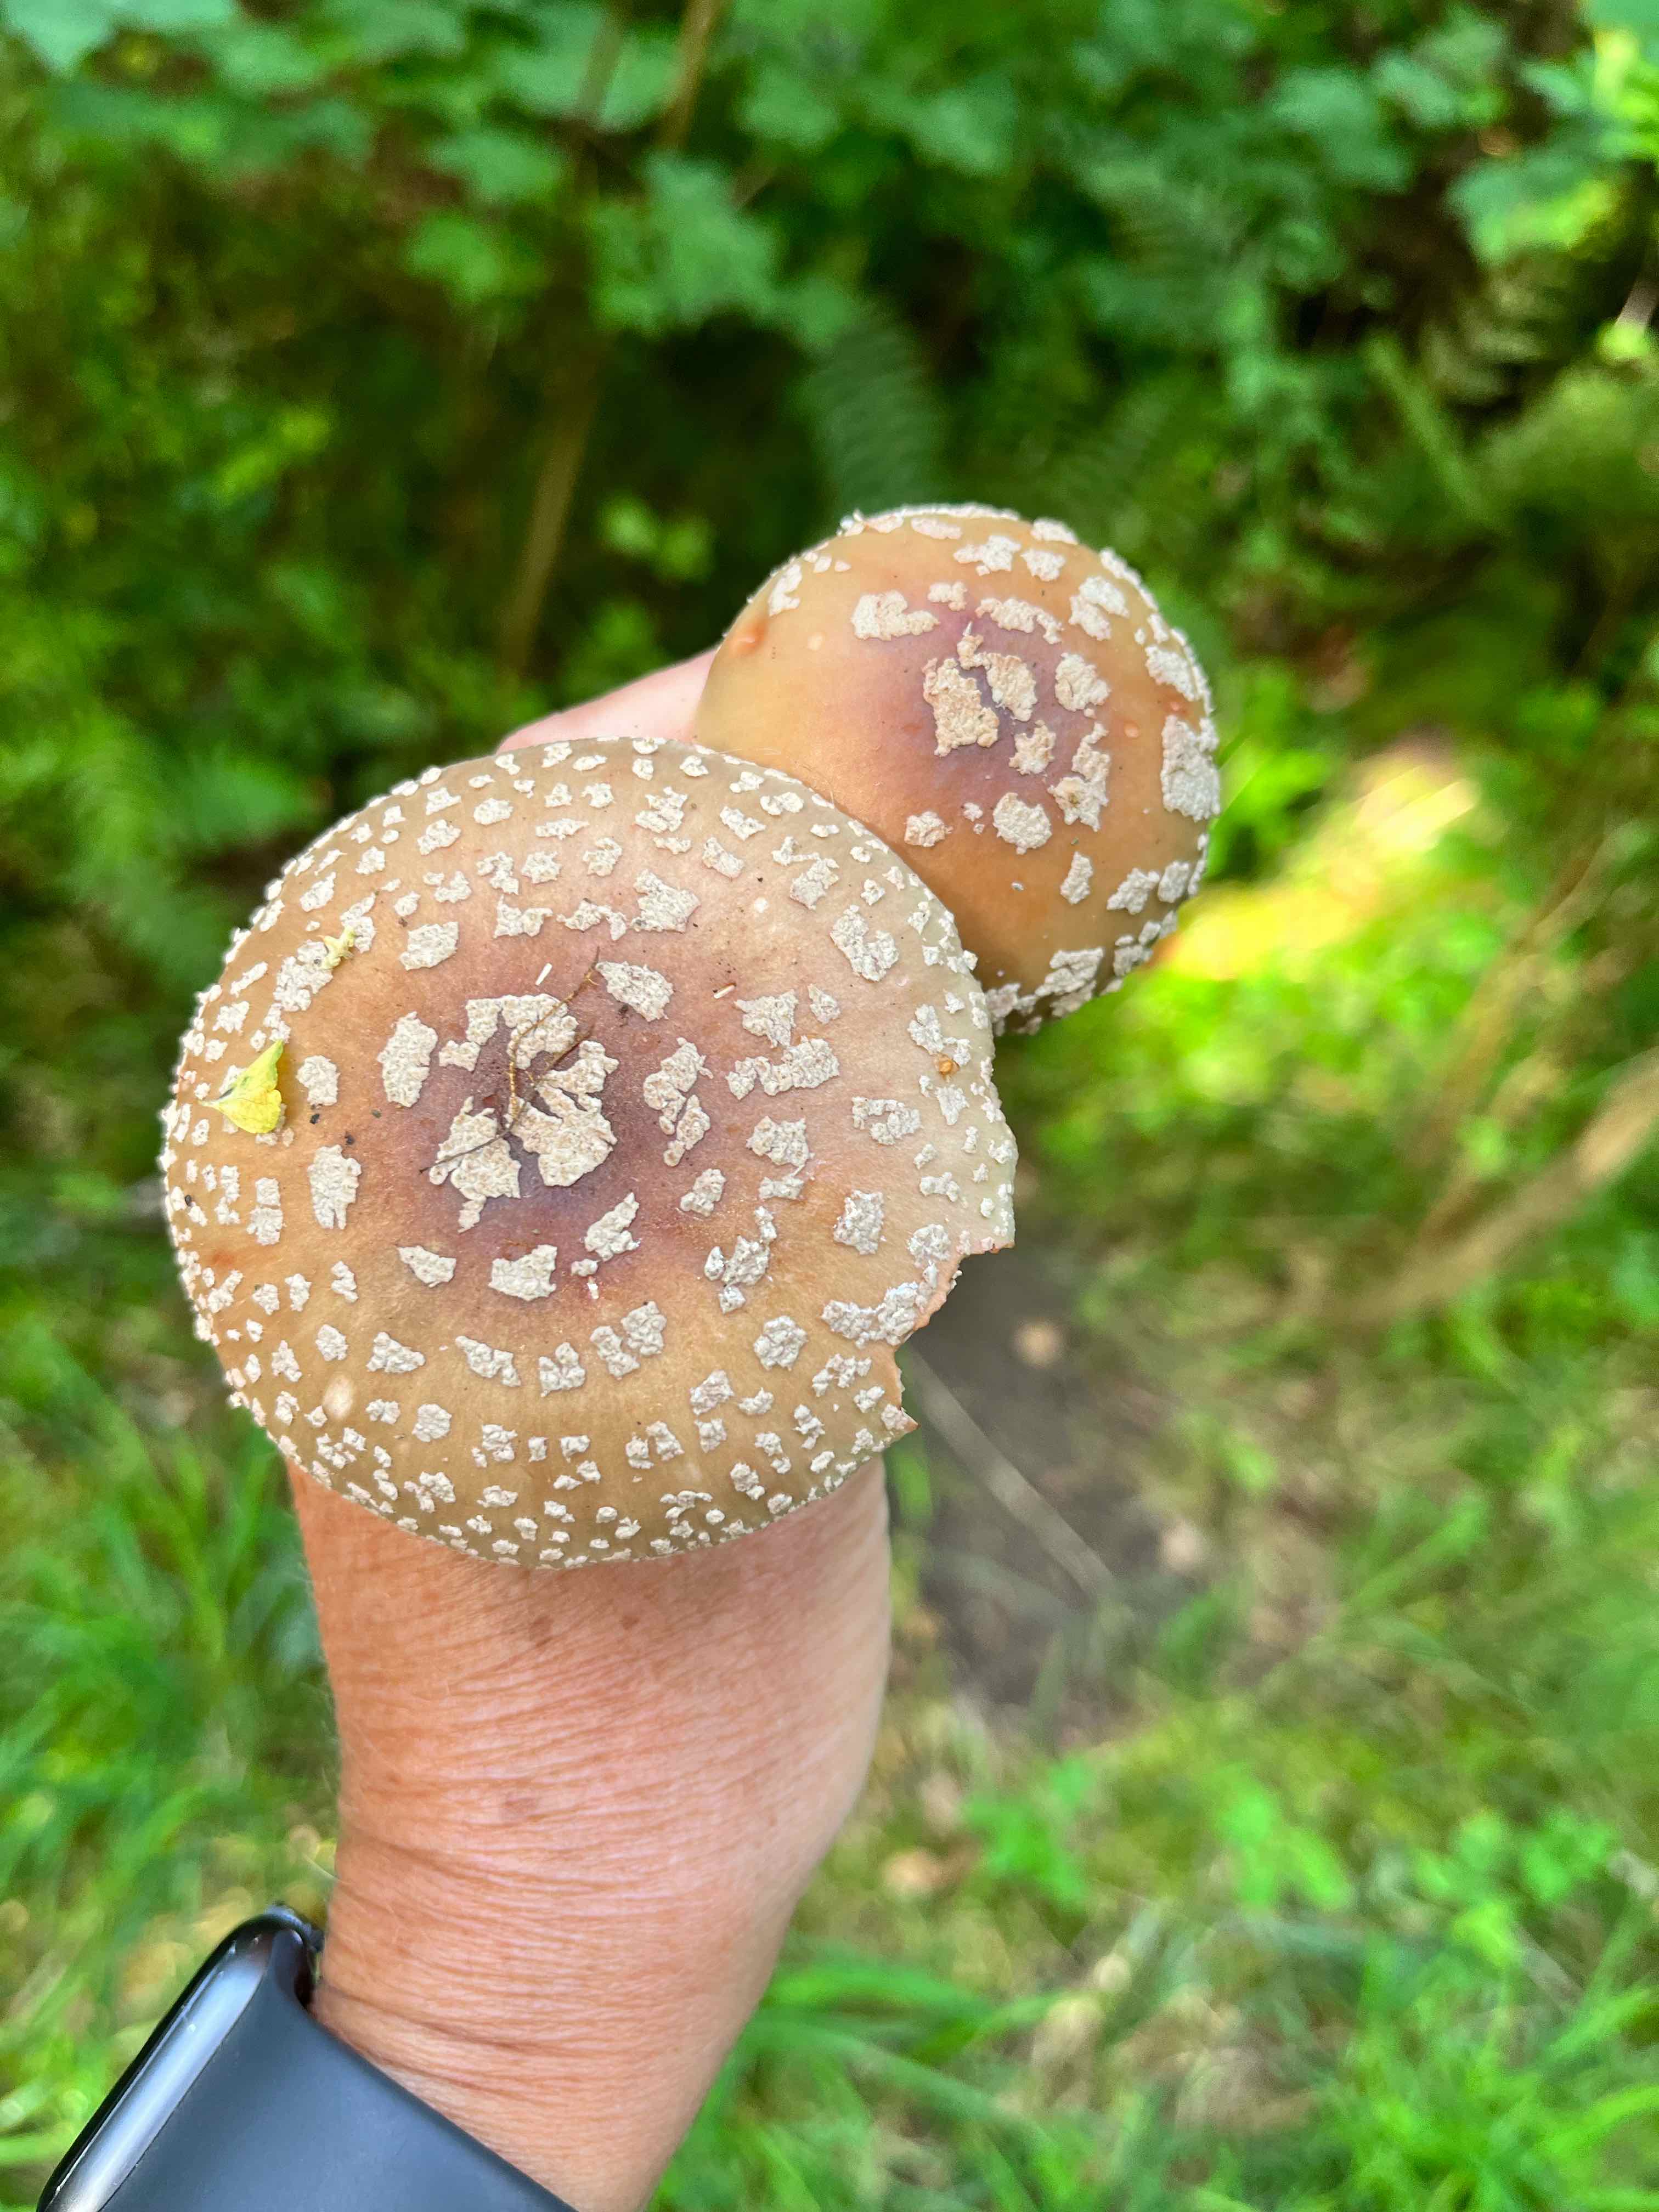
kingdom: Fungi
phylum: Basidiomycota
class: Agaricomycetes
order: Agaricales
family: Amanitaceae
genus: Amanita
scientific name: Amanita rubescens
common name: rødmende fluesvamp
